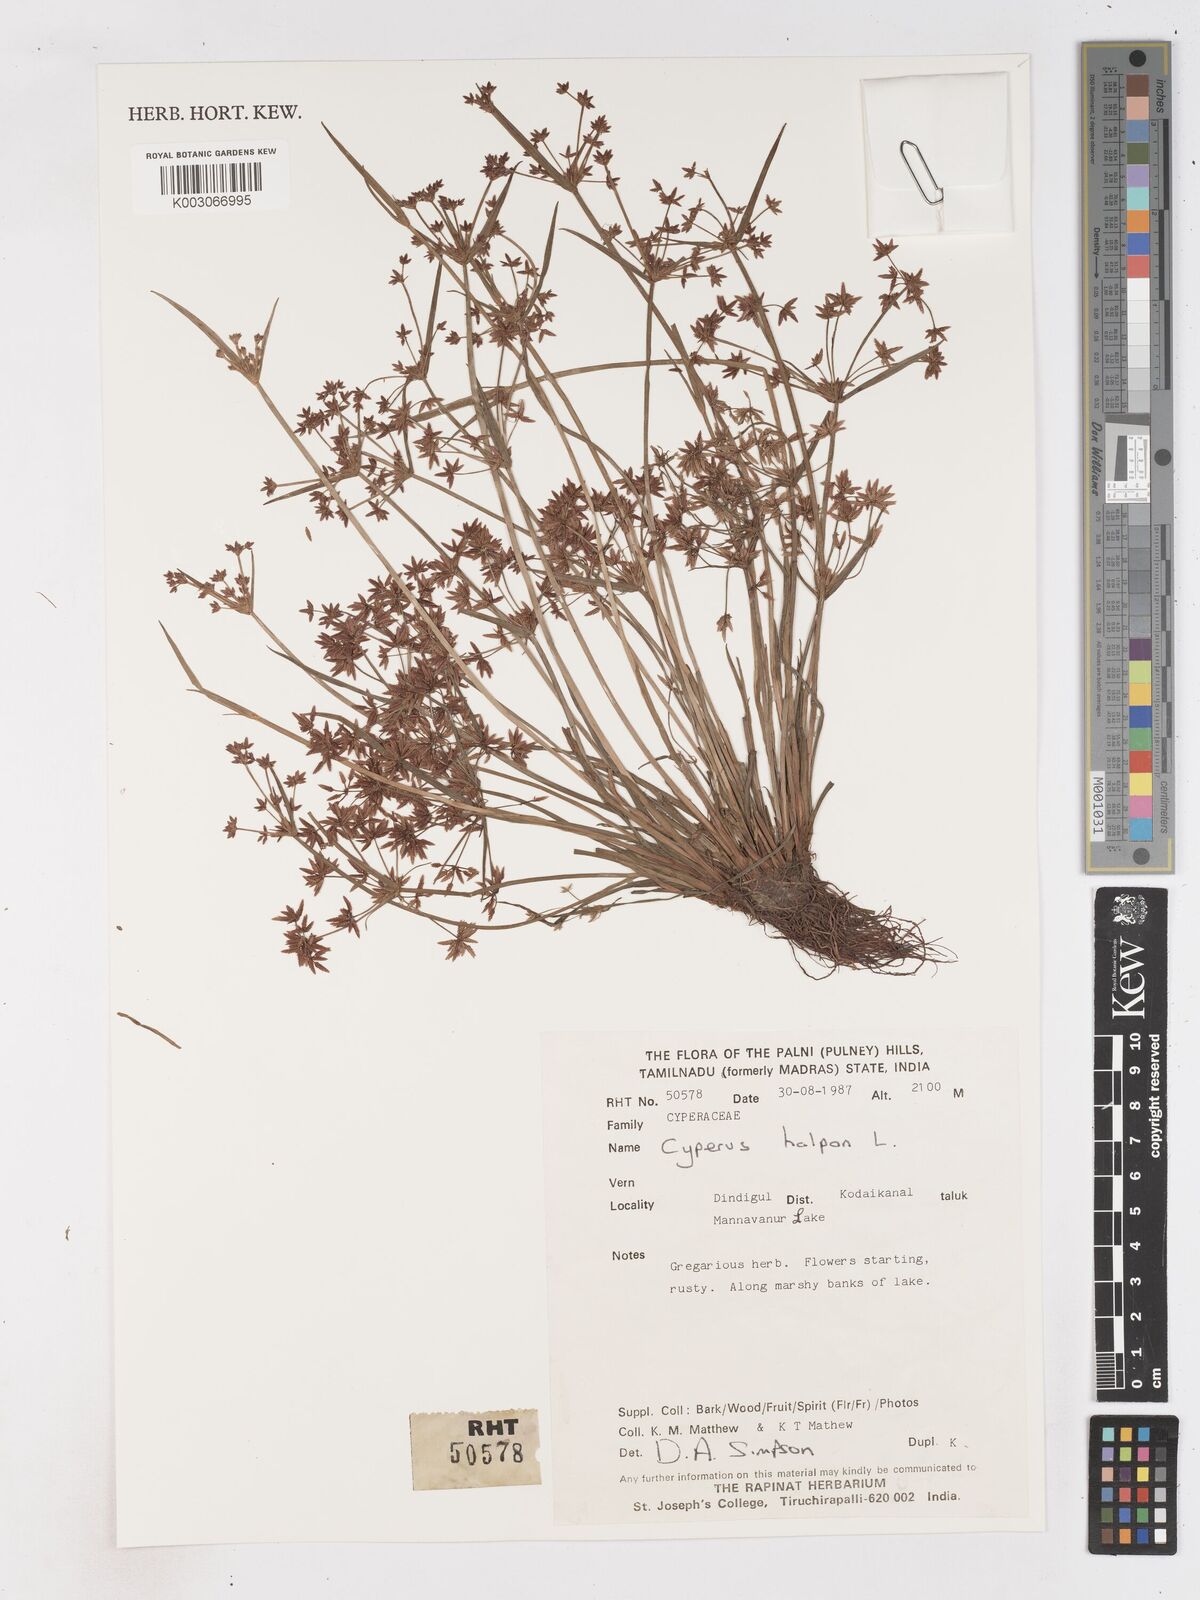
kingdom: Plantae
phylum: Tracheophyta
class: Liliopsida
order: Poales
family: Cyperaceae
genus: Cyperus
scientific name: Cyperus haspan
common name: Haspan flatsedge
